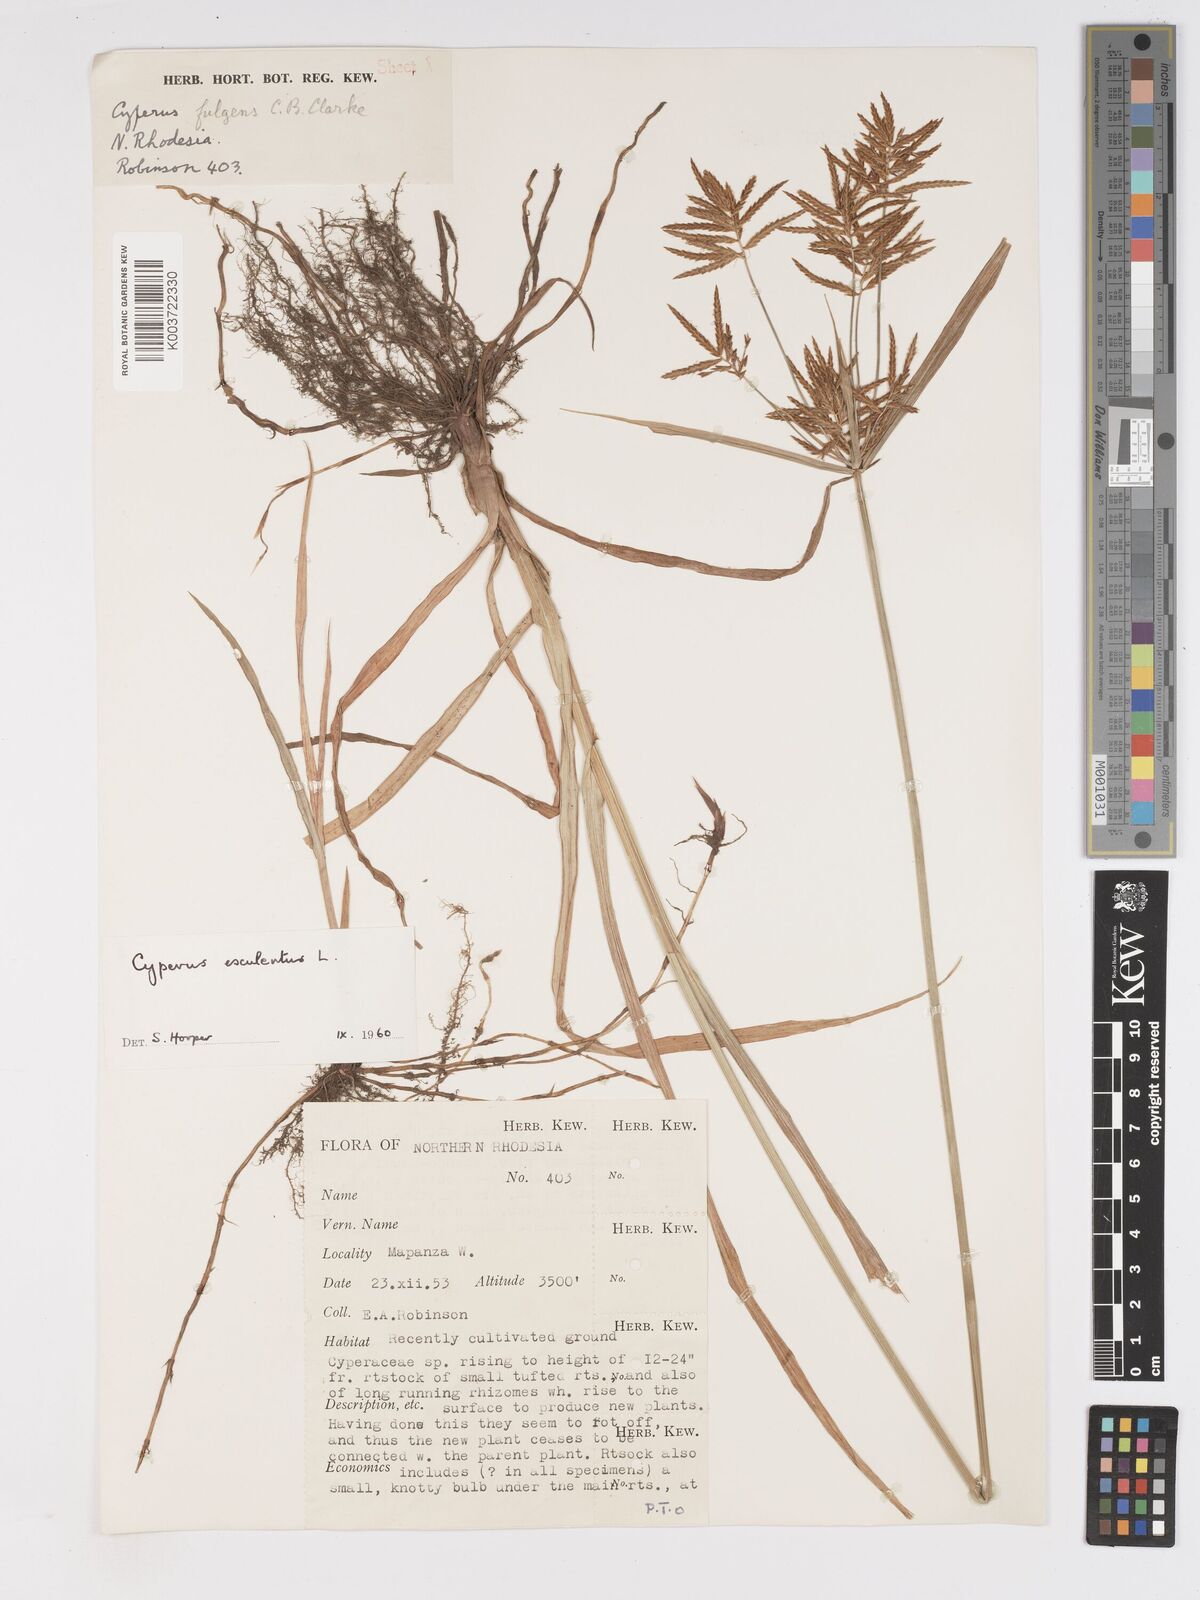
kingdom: Plantae
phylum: Tracheophyta
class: Liliopsida
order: Poales
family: Cyperaceae
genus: Cyperus
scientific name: Cyperus esculentus
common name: Yellow nutsedge
